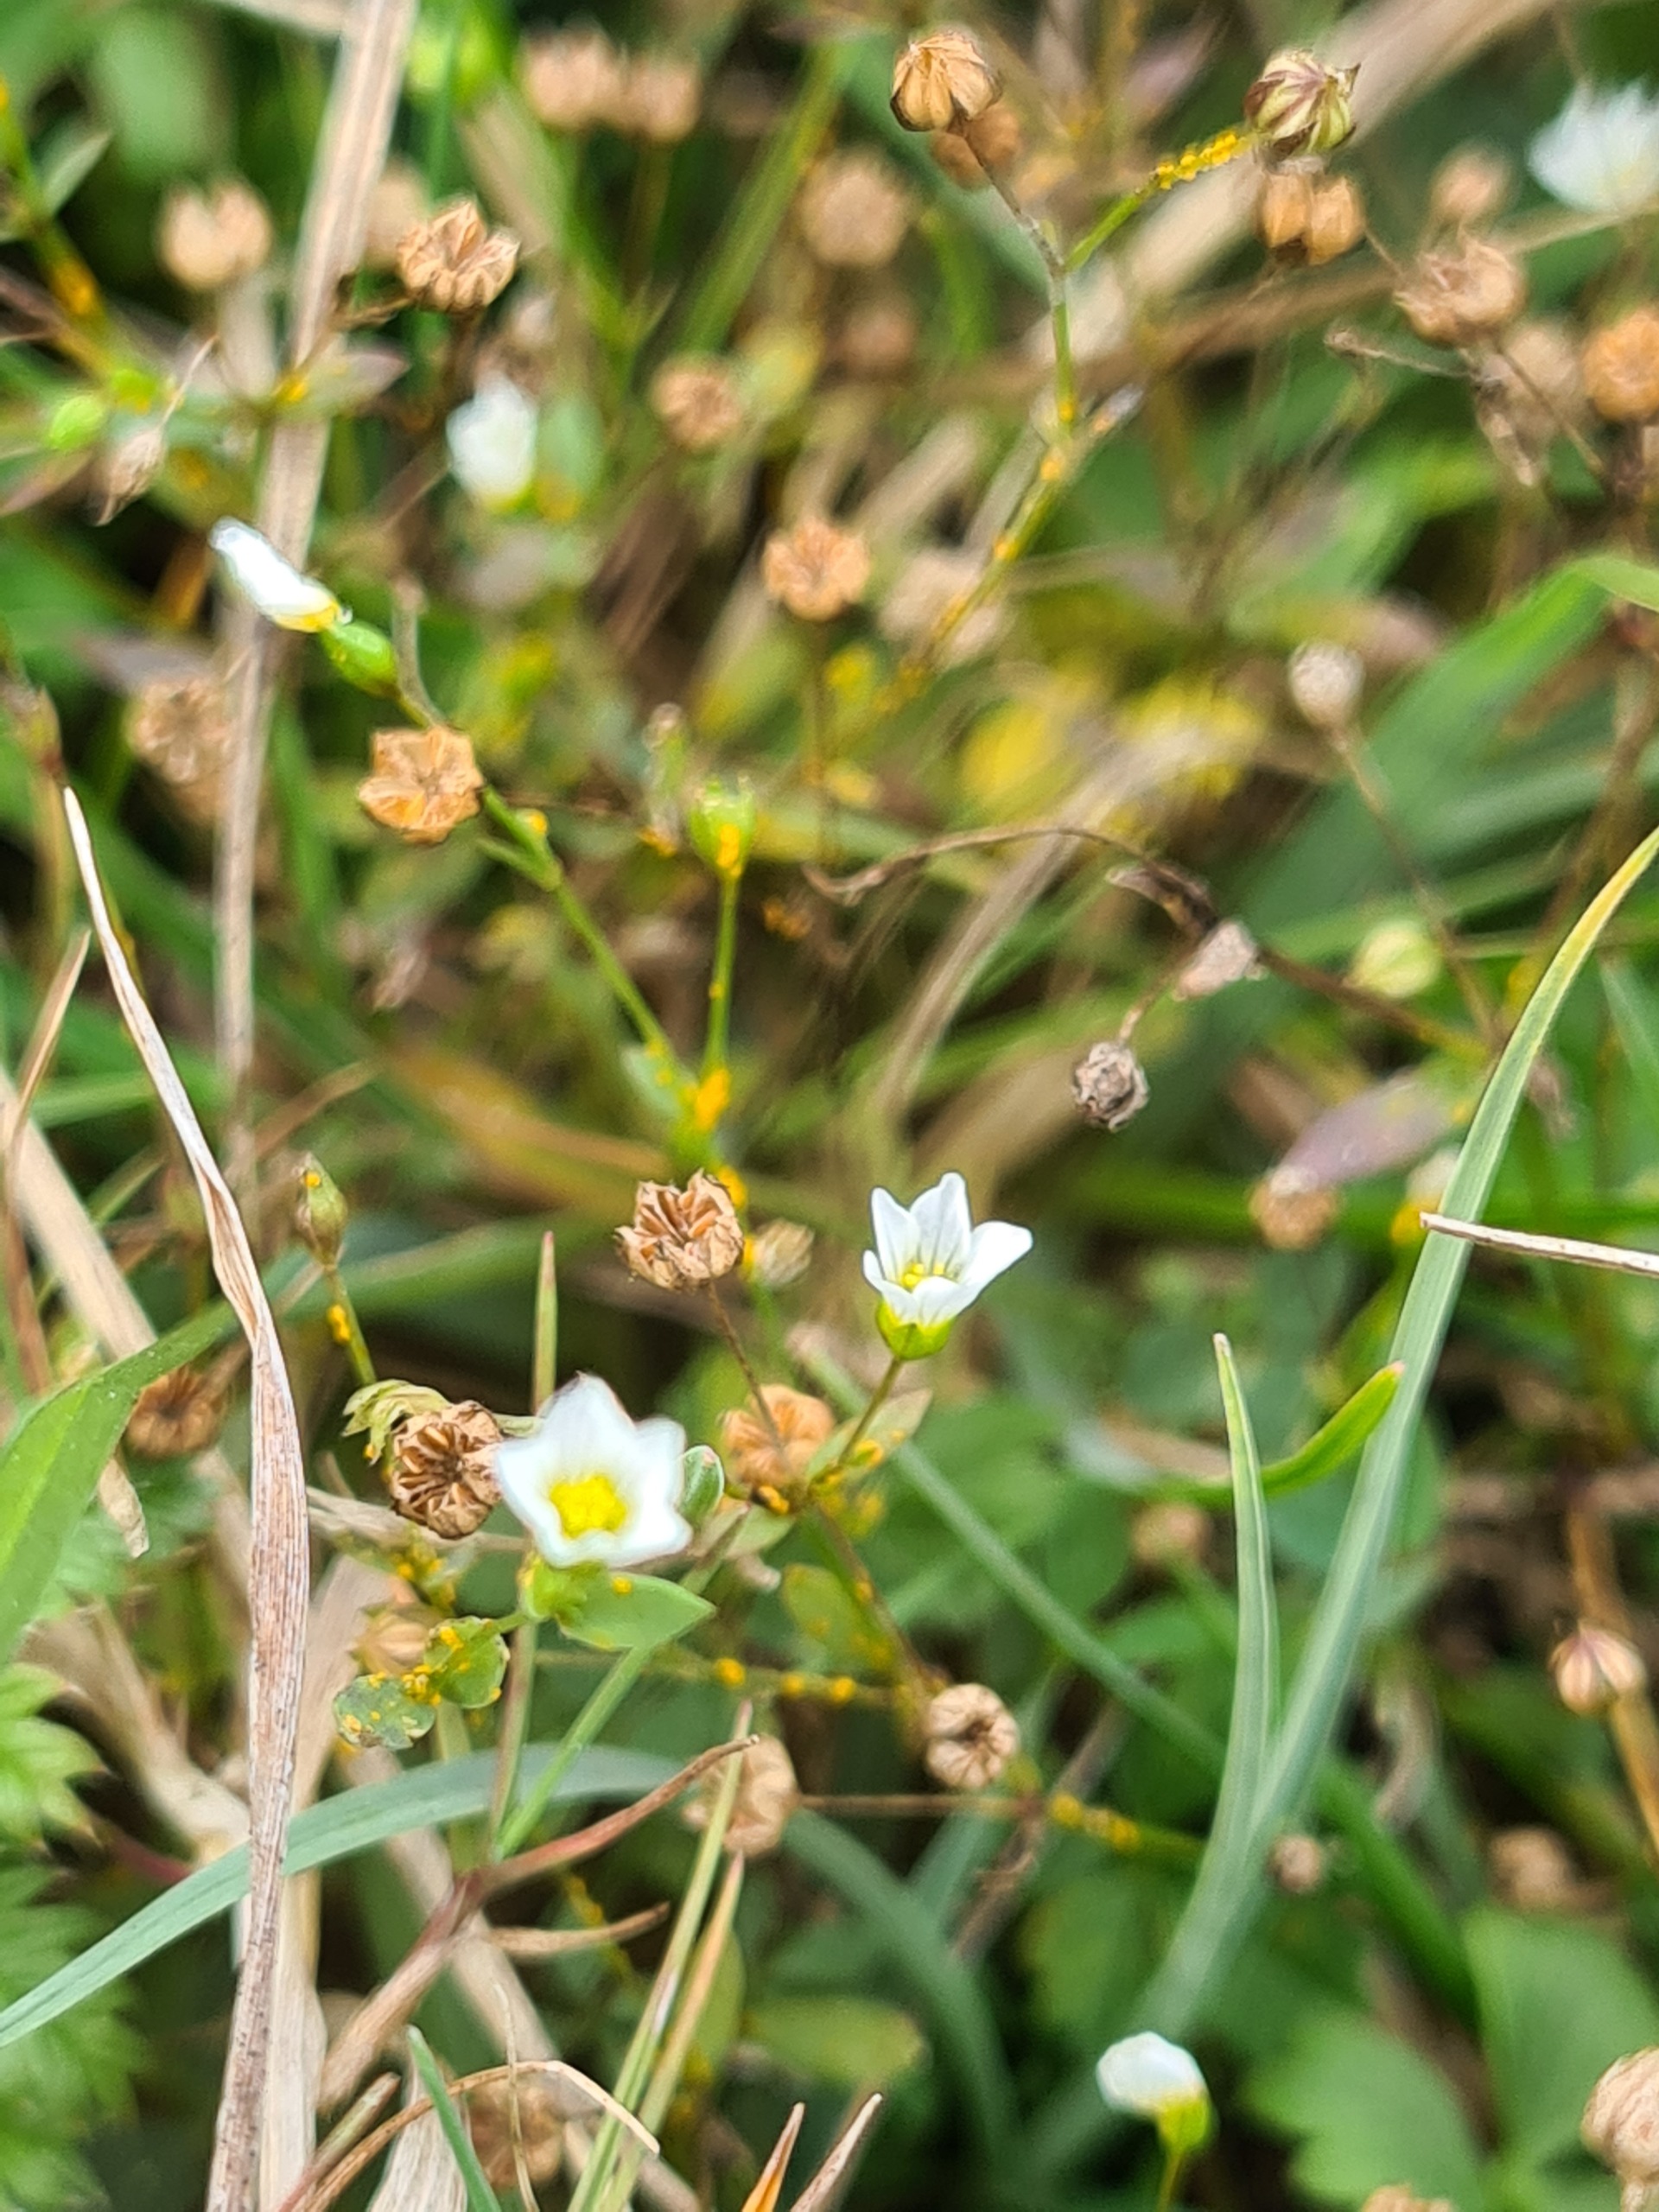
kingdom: Plantae
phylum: Tracheophyta
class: Magnoliopsida
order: Malpighiales
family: Linaceae
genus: Linum
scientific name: Linum catharticum
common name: Vild hør
